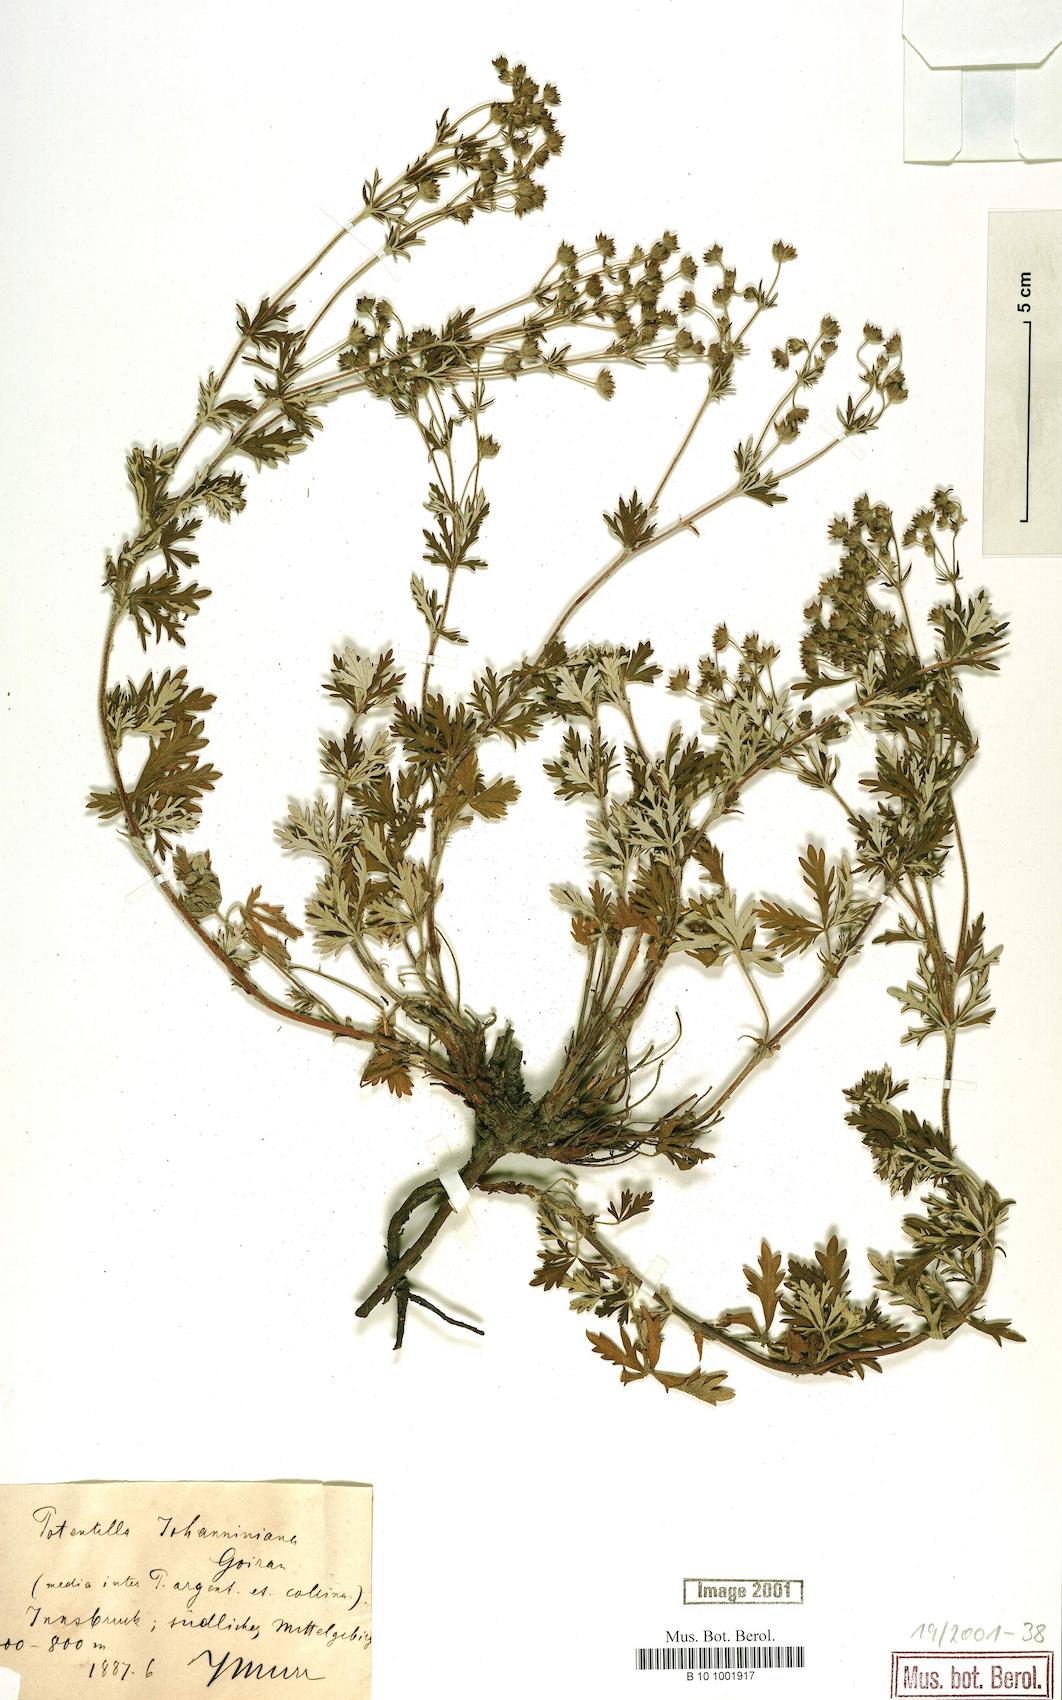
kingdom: Plantae
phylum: Tracheophyta
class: Magnoliopsida
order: Rosales
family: Rosaceae
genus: Potentilla
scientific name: Potentilla johanniniana
